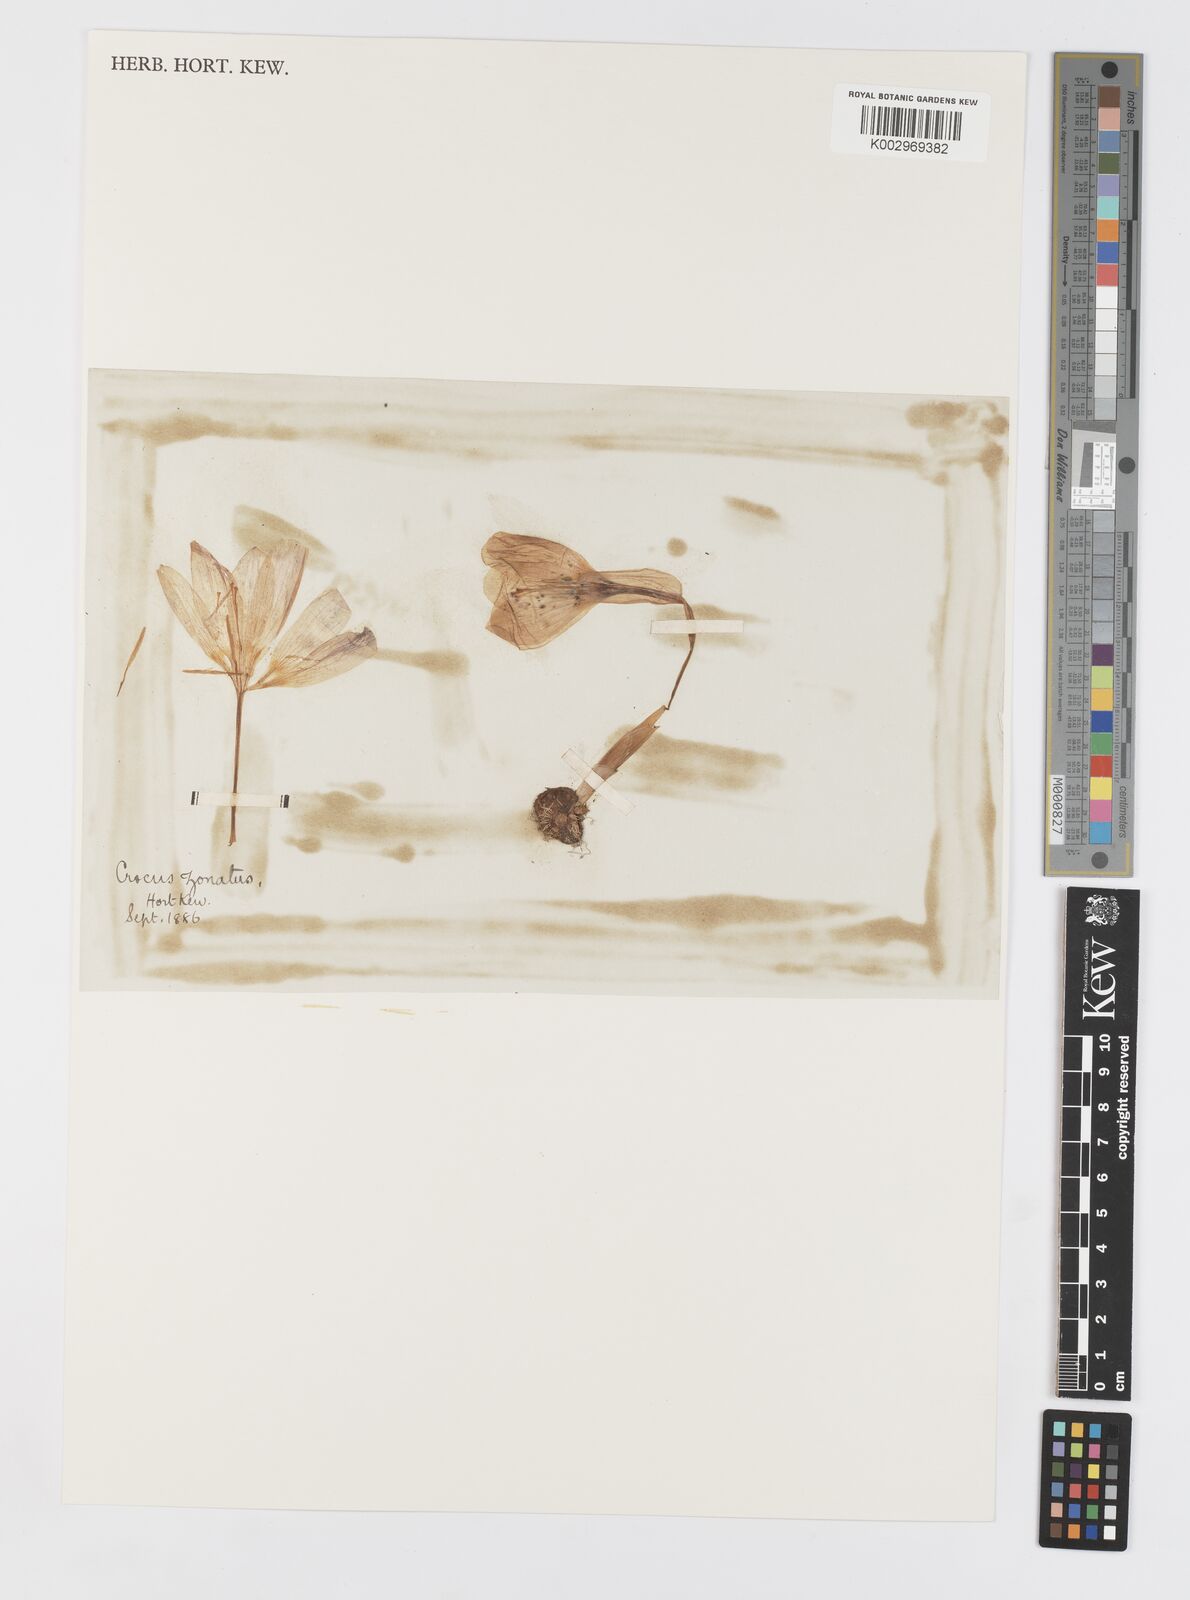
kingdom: Plantae
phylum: Tracheophyta
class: Liliopsida
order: Asparagales
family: Iridaceae
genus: Crocus
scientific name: Crocus kotschyanus
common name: Kotschy's crocus
